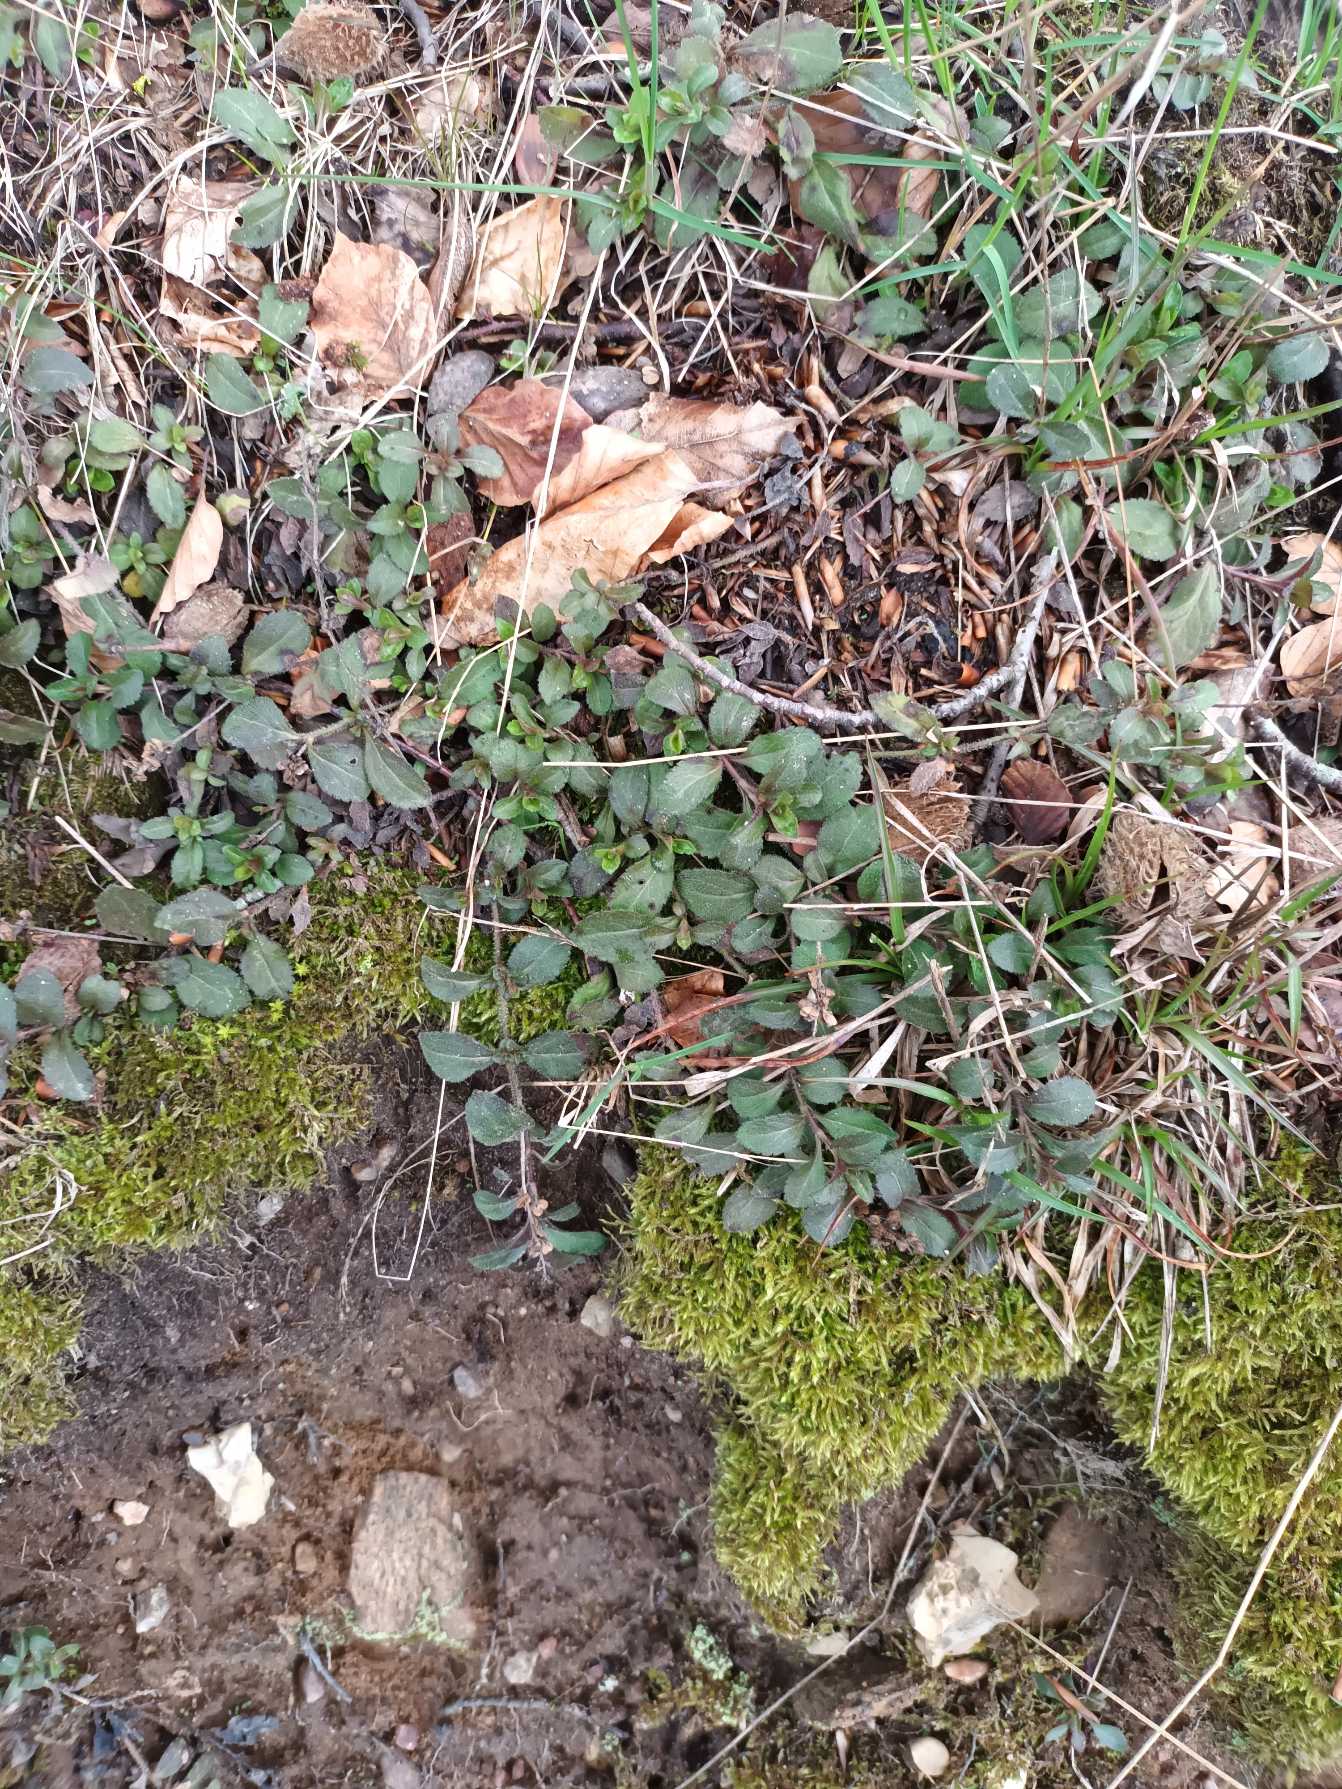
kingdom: Plantae
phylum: Tracheophyta
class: Magnoliopsida
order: Lamiales
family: Plantaginaceae
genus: Veronica
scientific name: Veronica officinalis
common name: Læge-ærenpris
